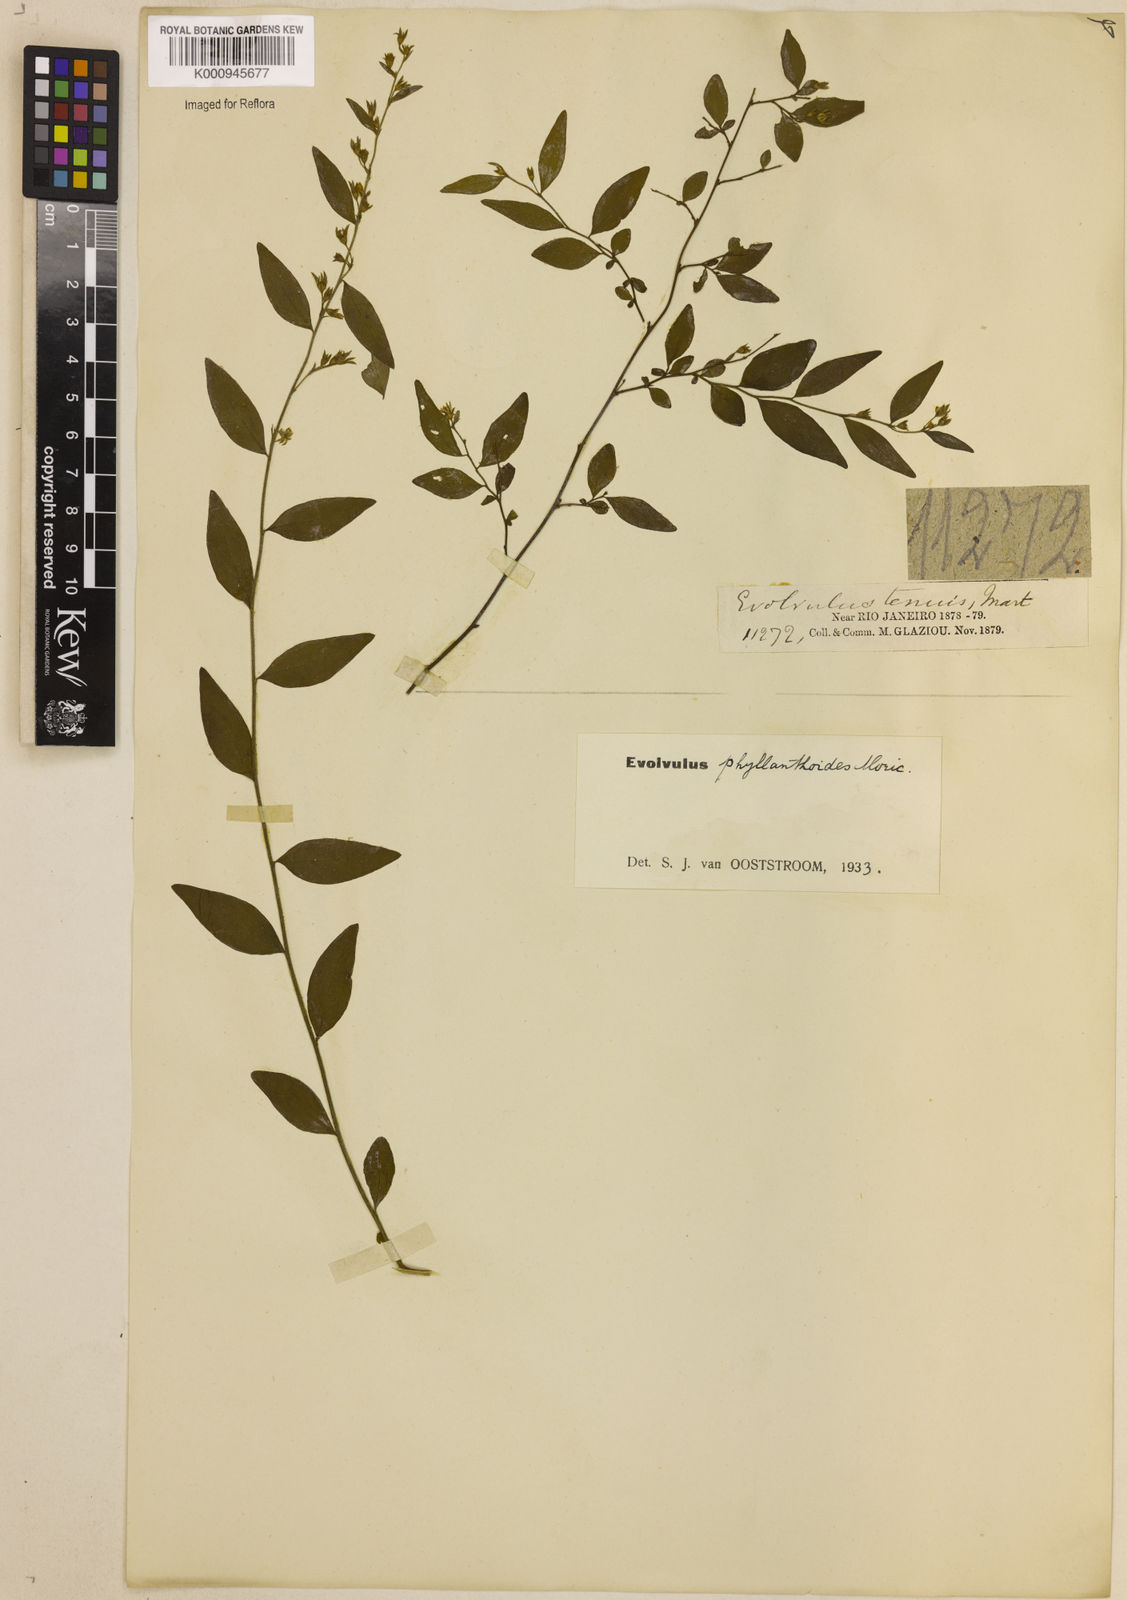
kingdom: Plantae
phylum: Tracheophyta
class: Magnoliopsida
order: Solanales
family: Convolvulaceae
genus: Evolvulus
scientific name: Evolvulus phyllanthoides
